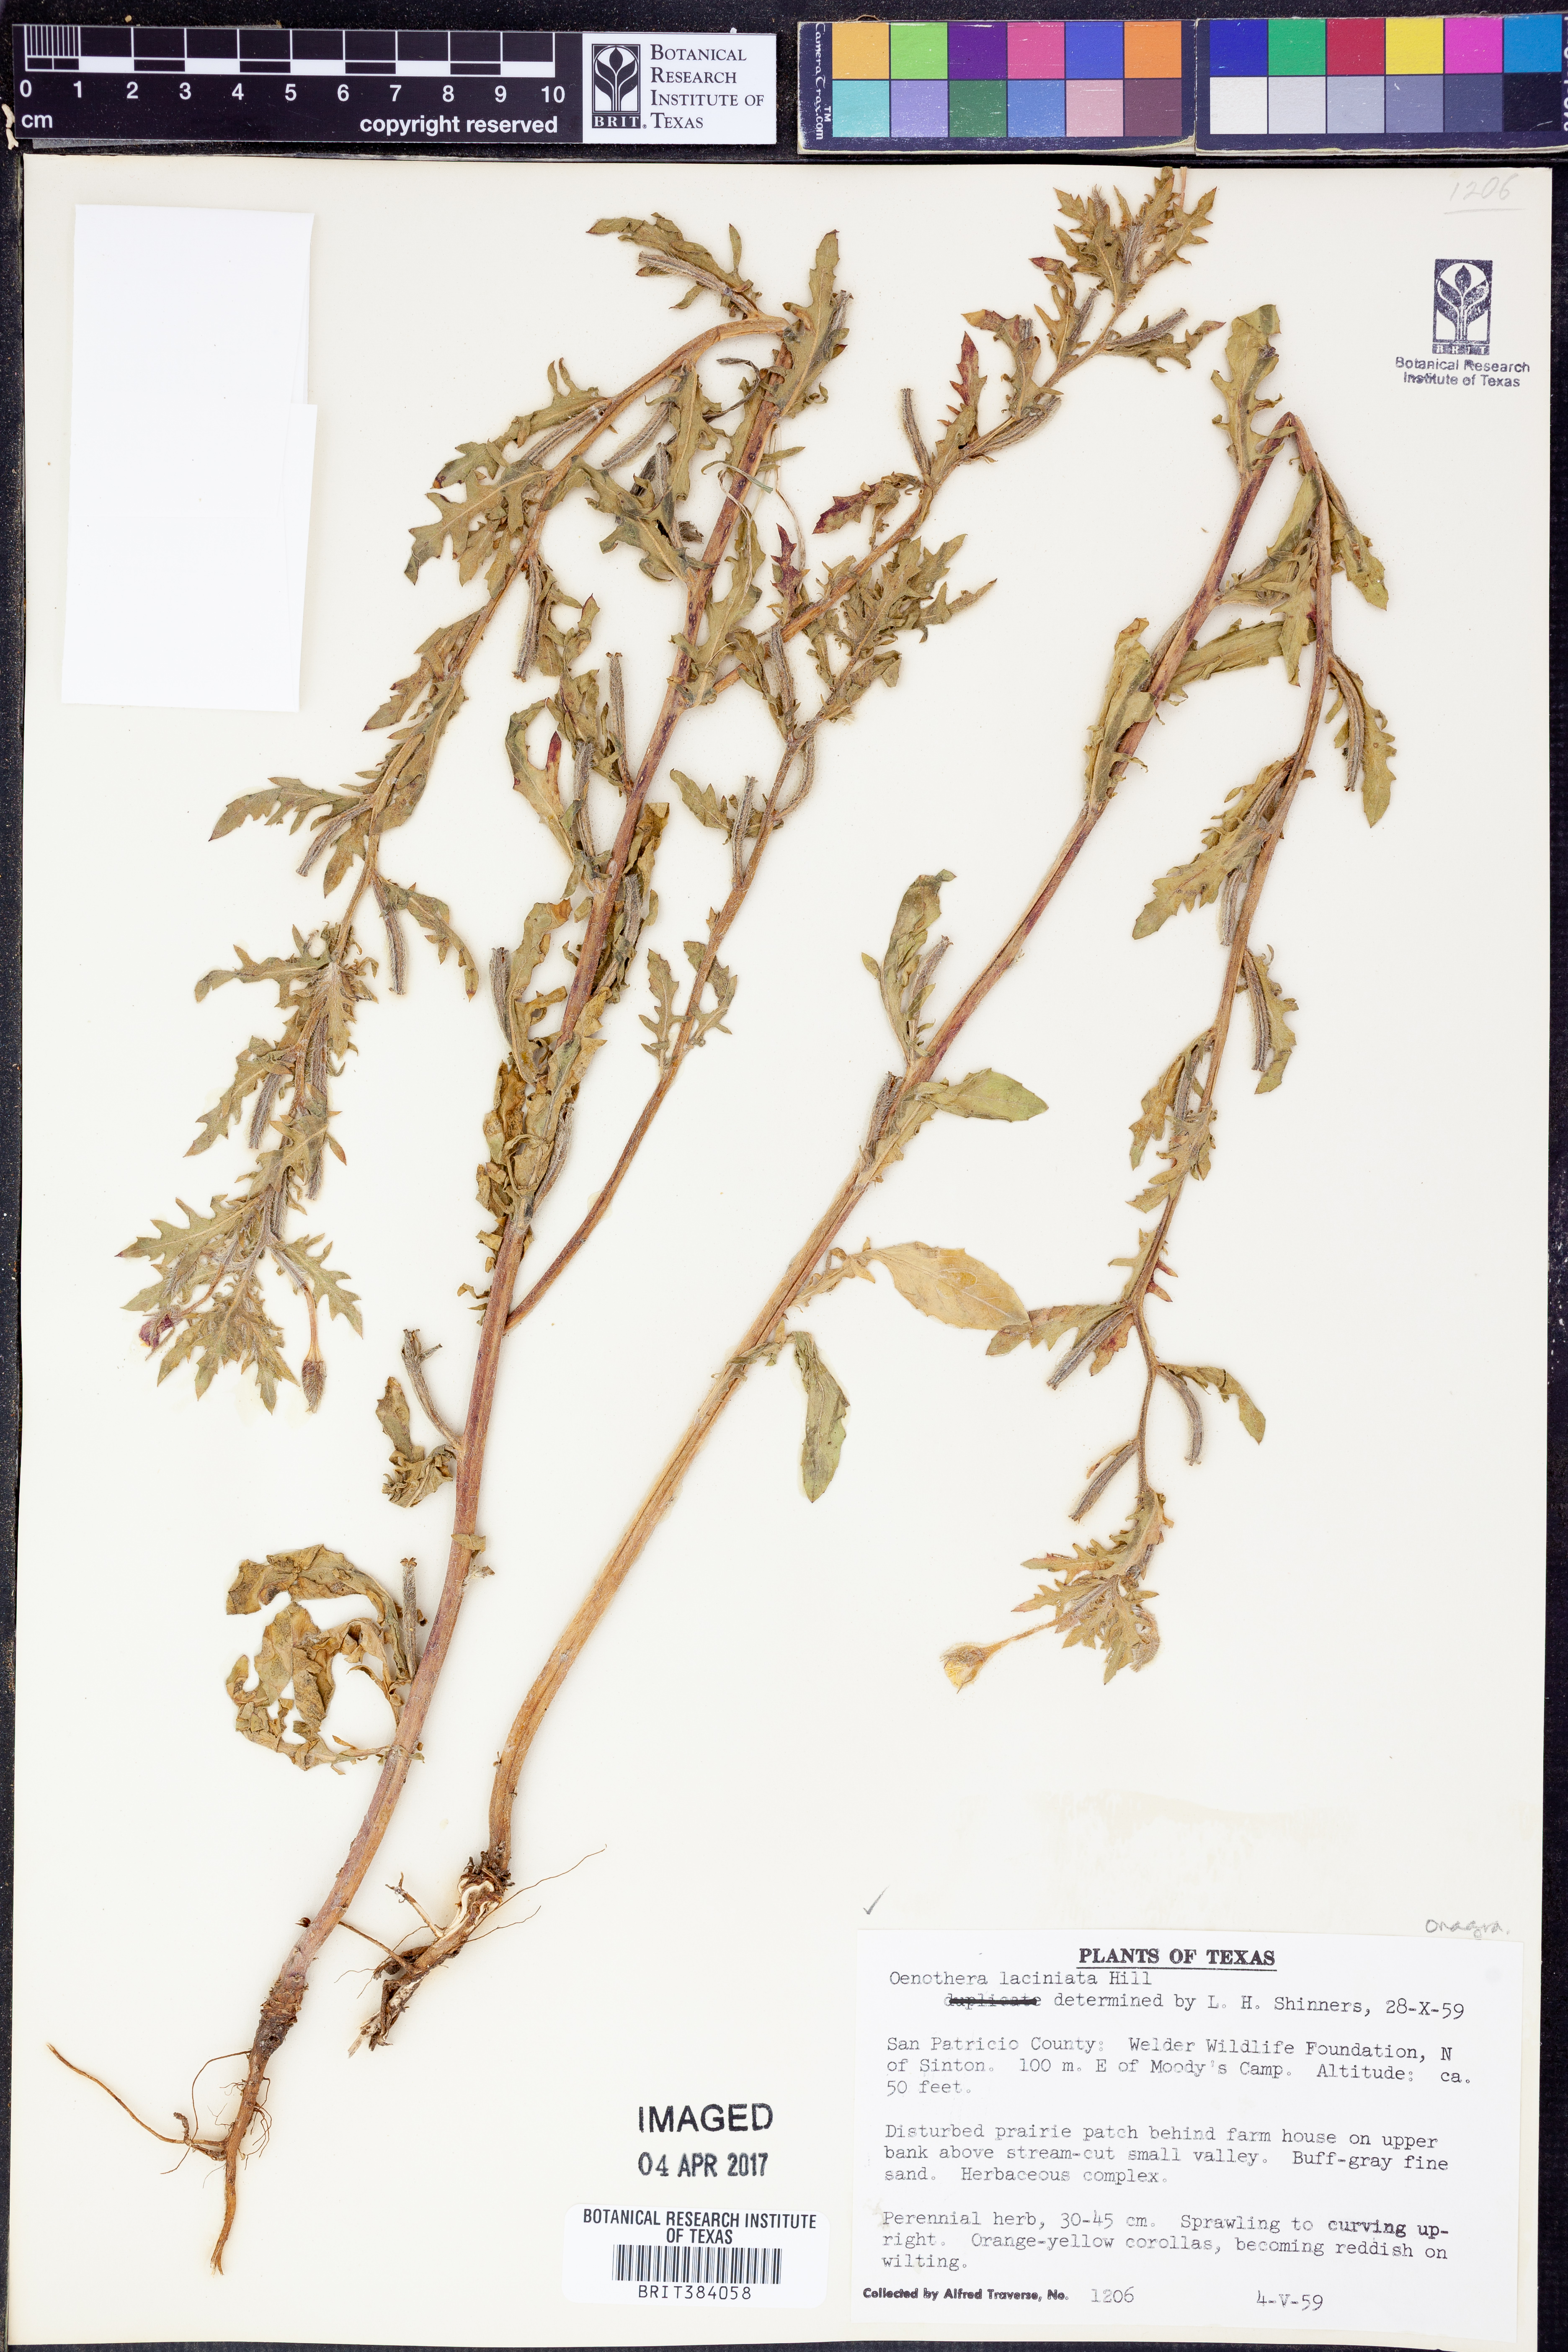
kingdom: Plantae
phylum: Tracheophyta
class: Magnoliopsida
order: Myrtales
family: Onagraceae
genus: Oenothera
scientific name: Oenothera laciniata
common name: Cut-leaved evening-primrose
